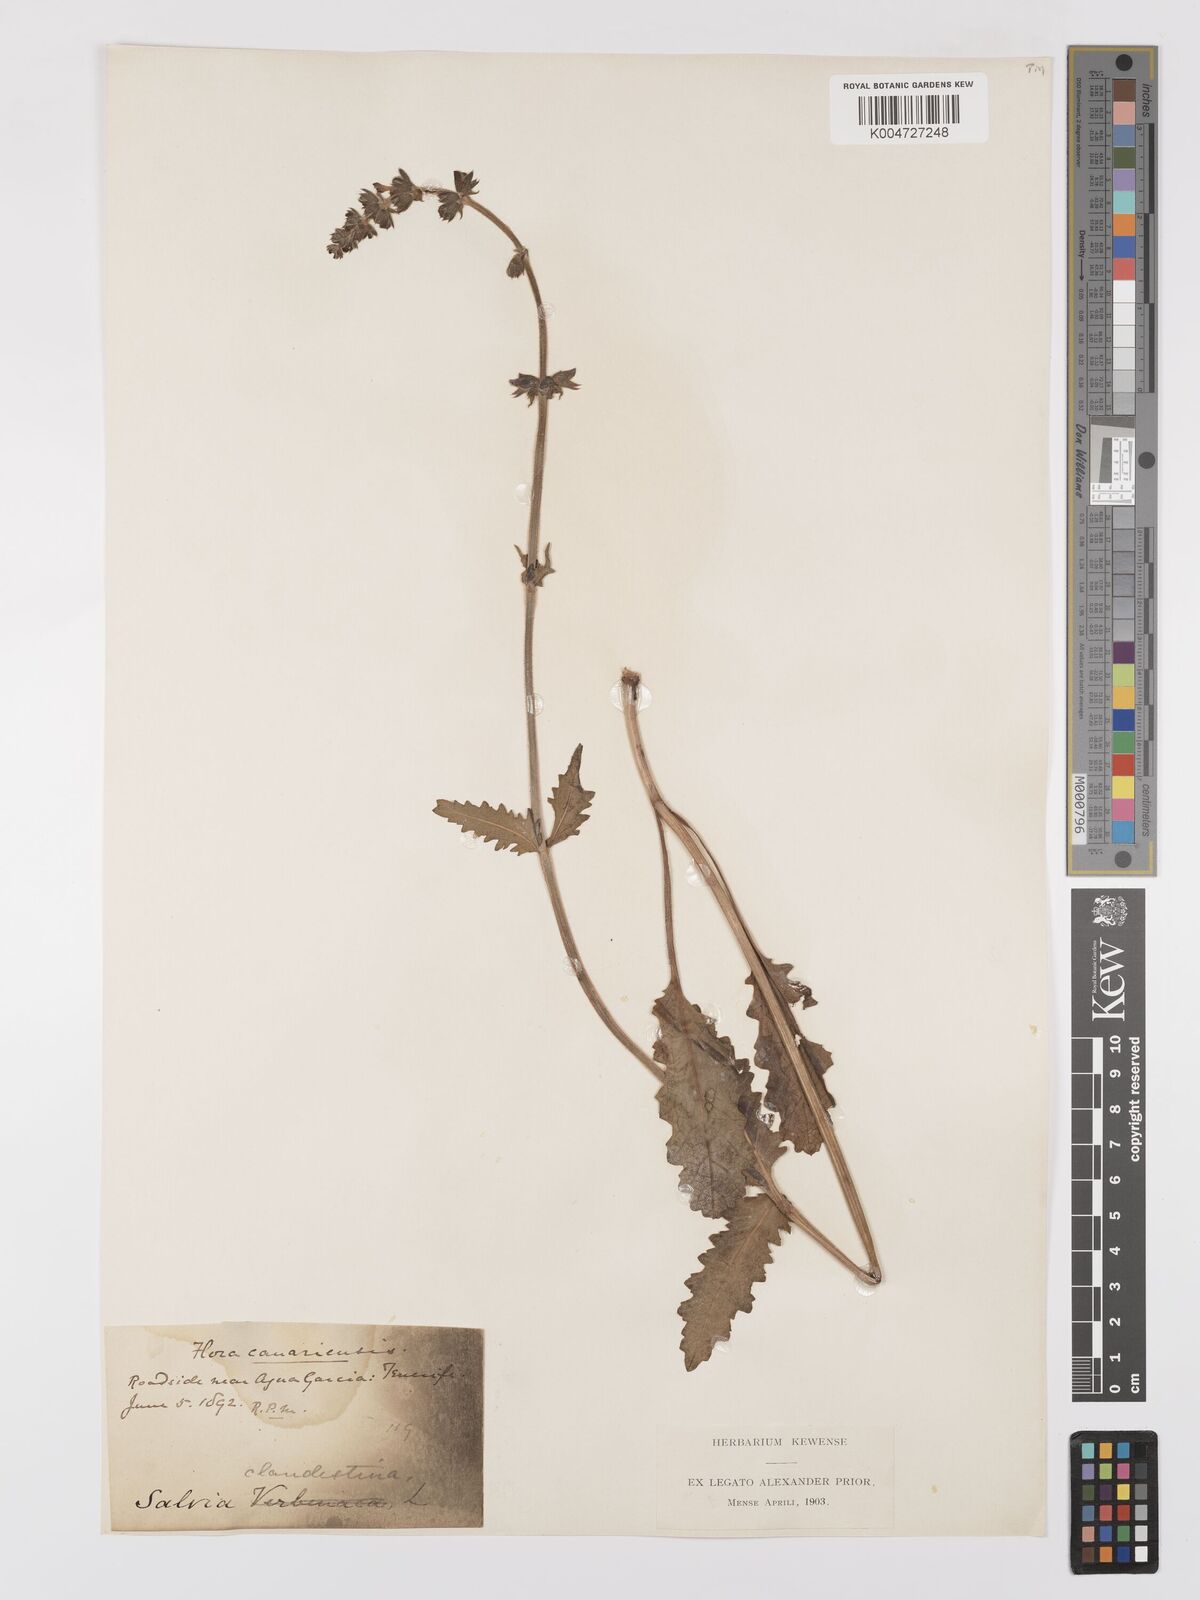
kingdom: Plantae
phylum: Tracheophyta
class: Magnoliopsida
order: Lamiales
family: Lamiaceae
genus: Salvia
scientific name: Salvia verbenaca
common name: Wild clary
